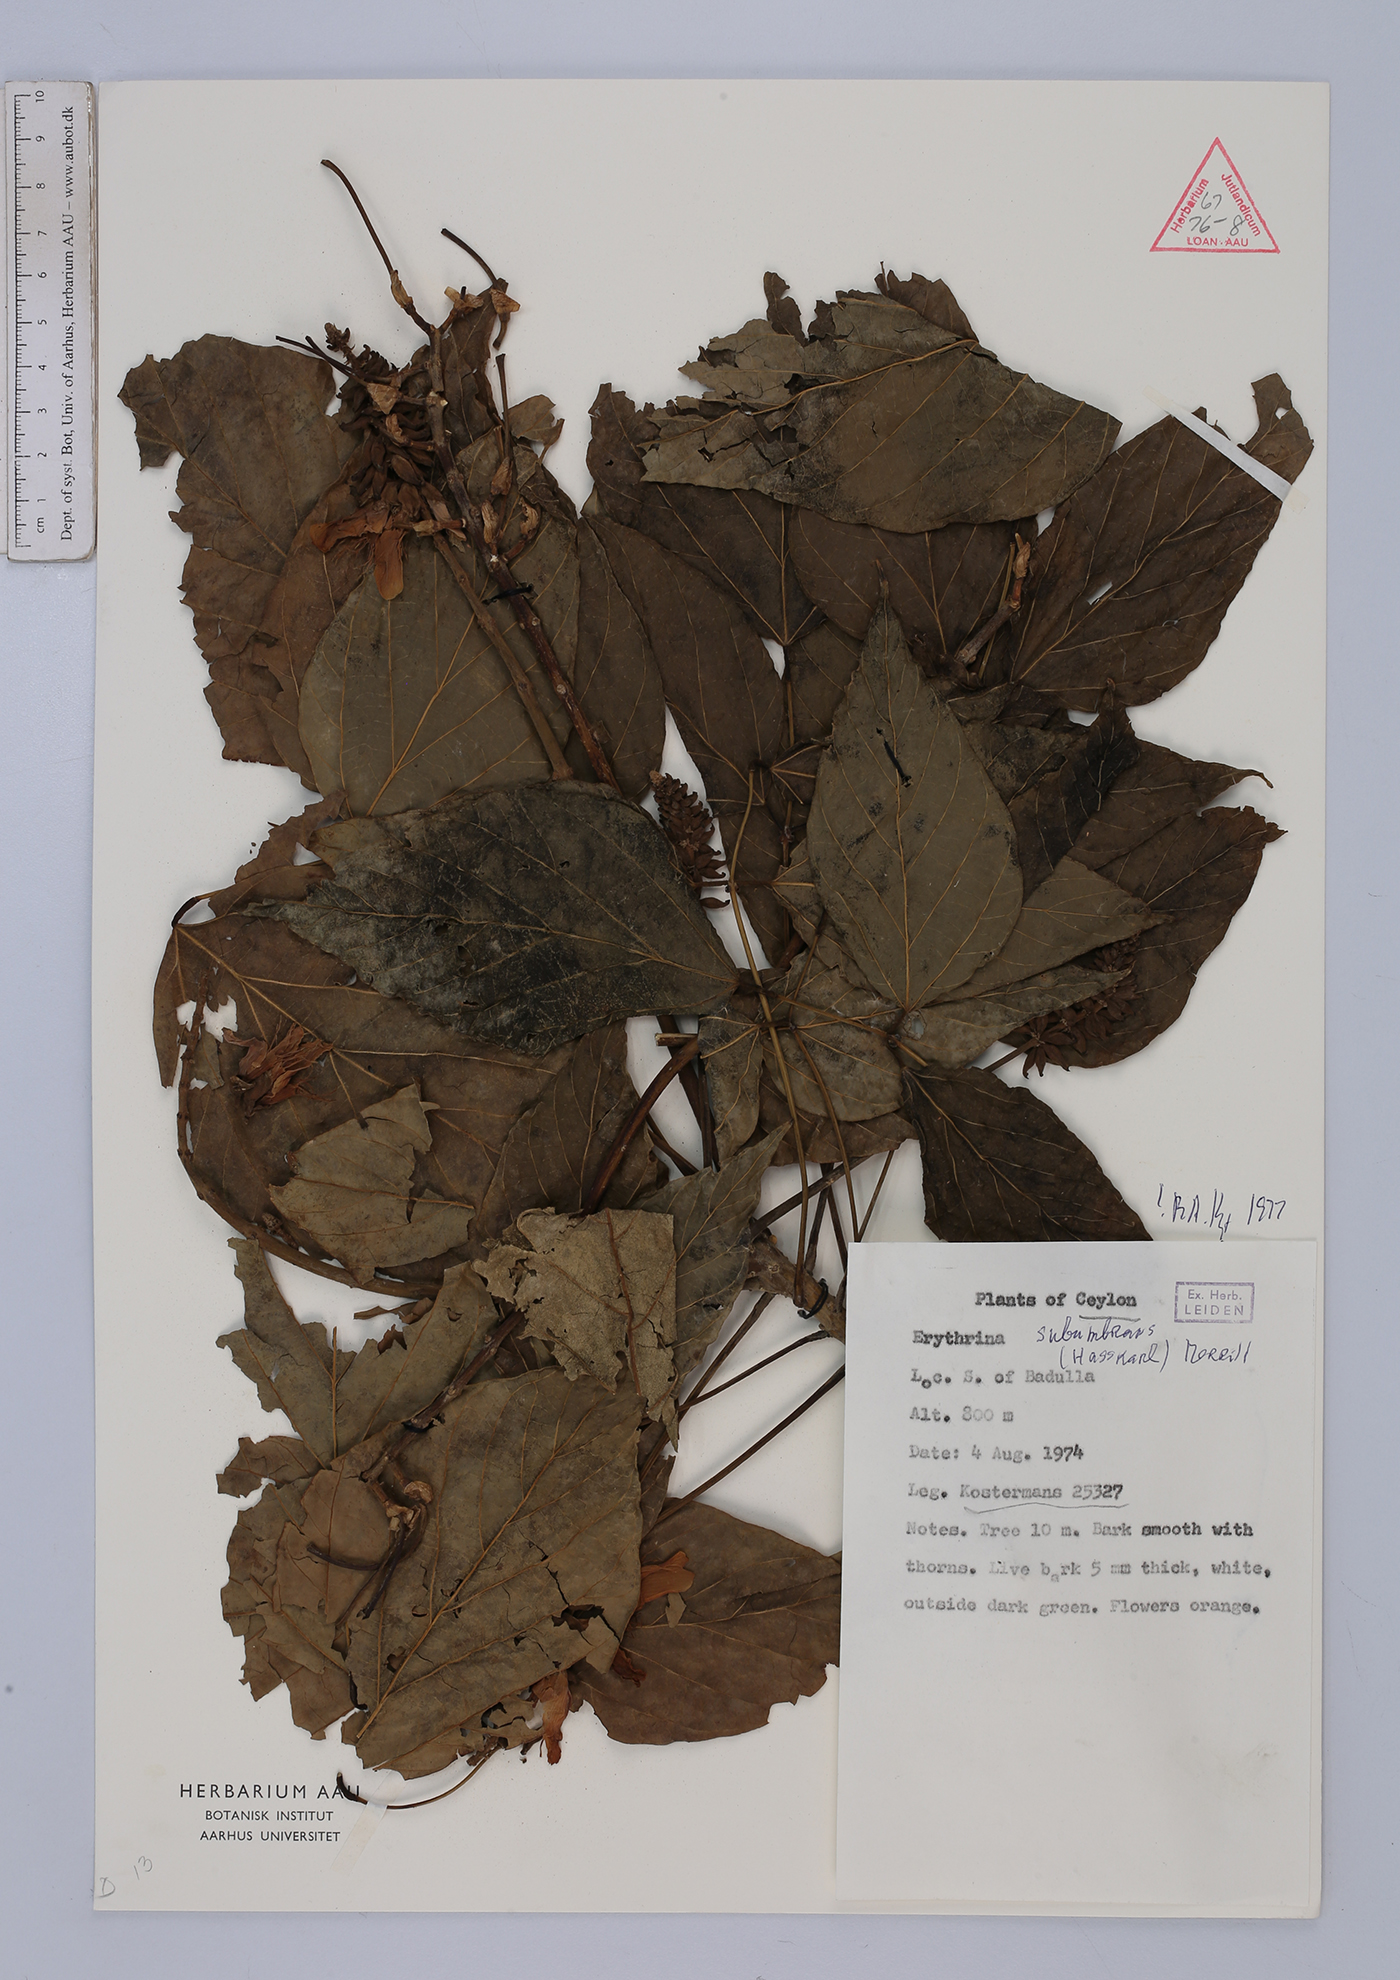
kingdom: Plantae
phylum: Tracheophyta
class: Magnoliopsida
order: Fabales
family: Fabaceae
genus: Erythrina
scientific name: Erythrina subumbrans
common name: December-tree
